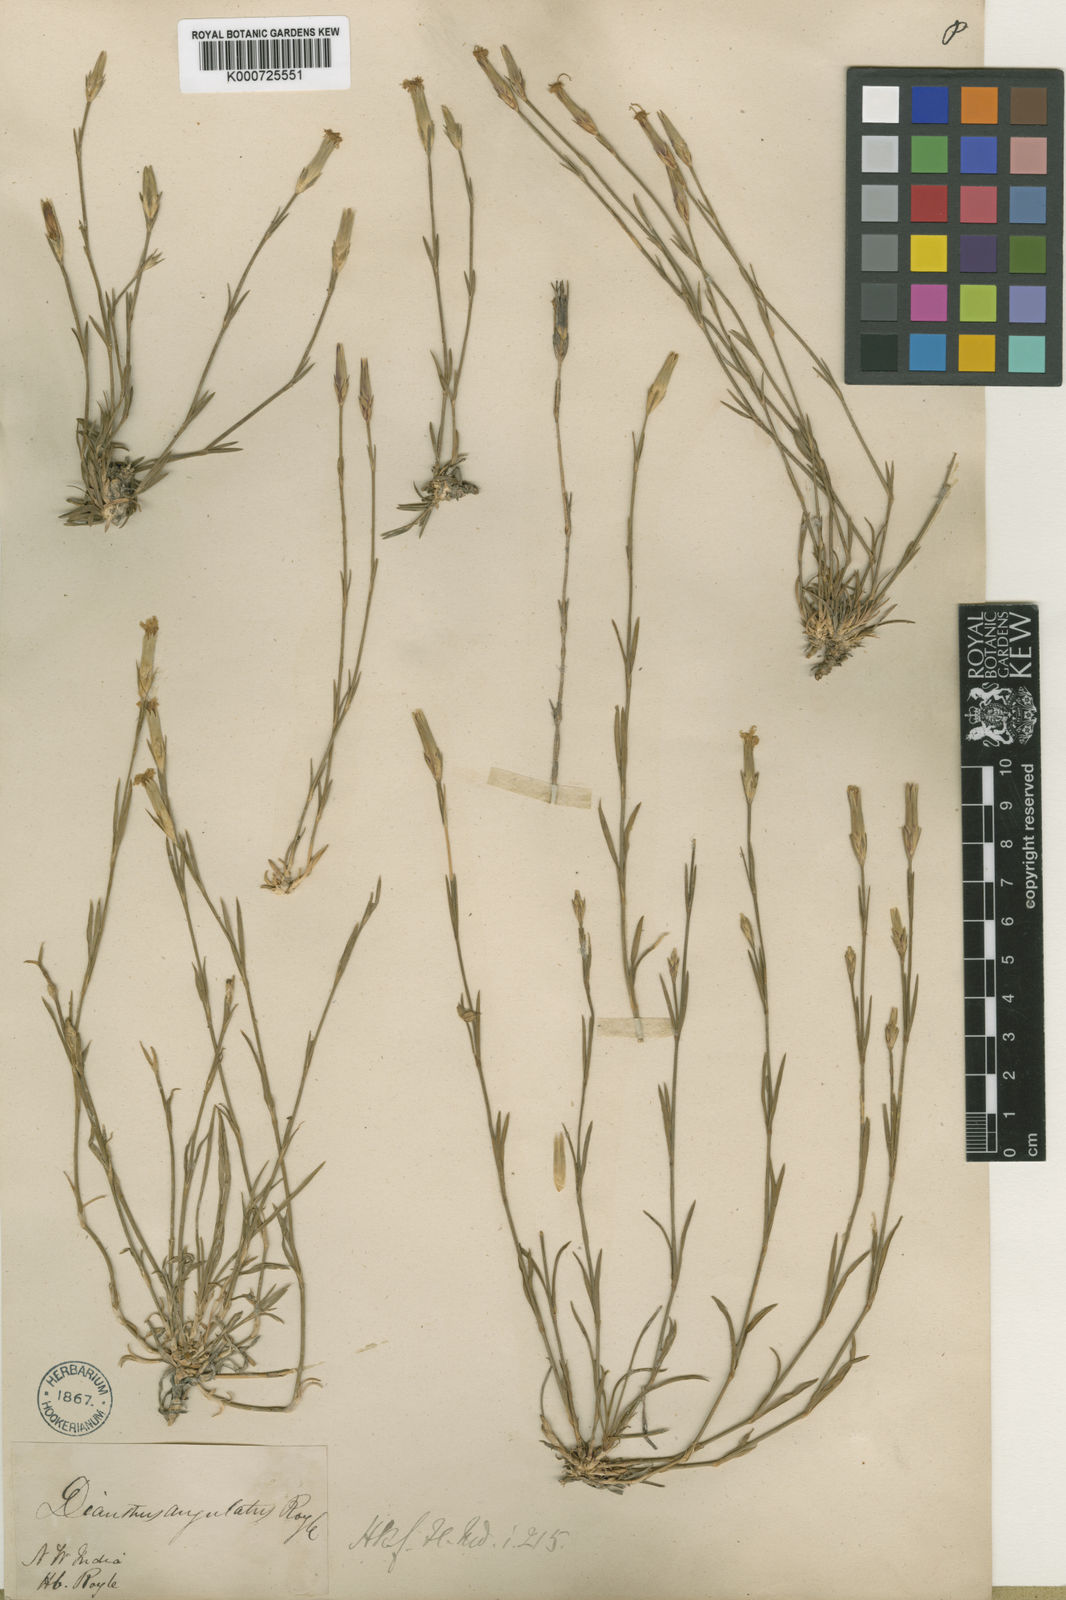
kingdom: Plantae
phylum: Tracheophyta
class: Magnoliopsida
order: Caryophyllales
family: Caryophyllaceae
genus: Dianthus
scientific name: Dianthus
